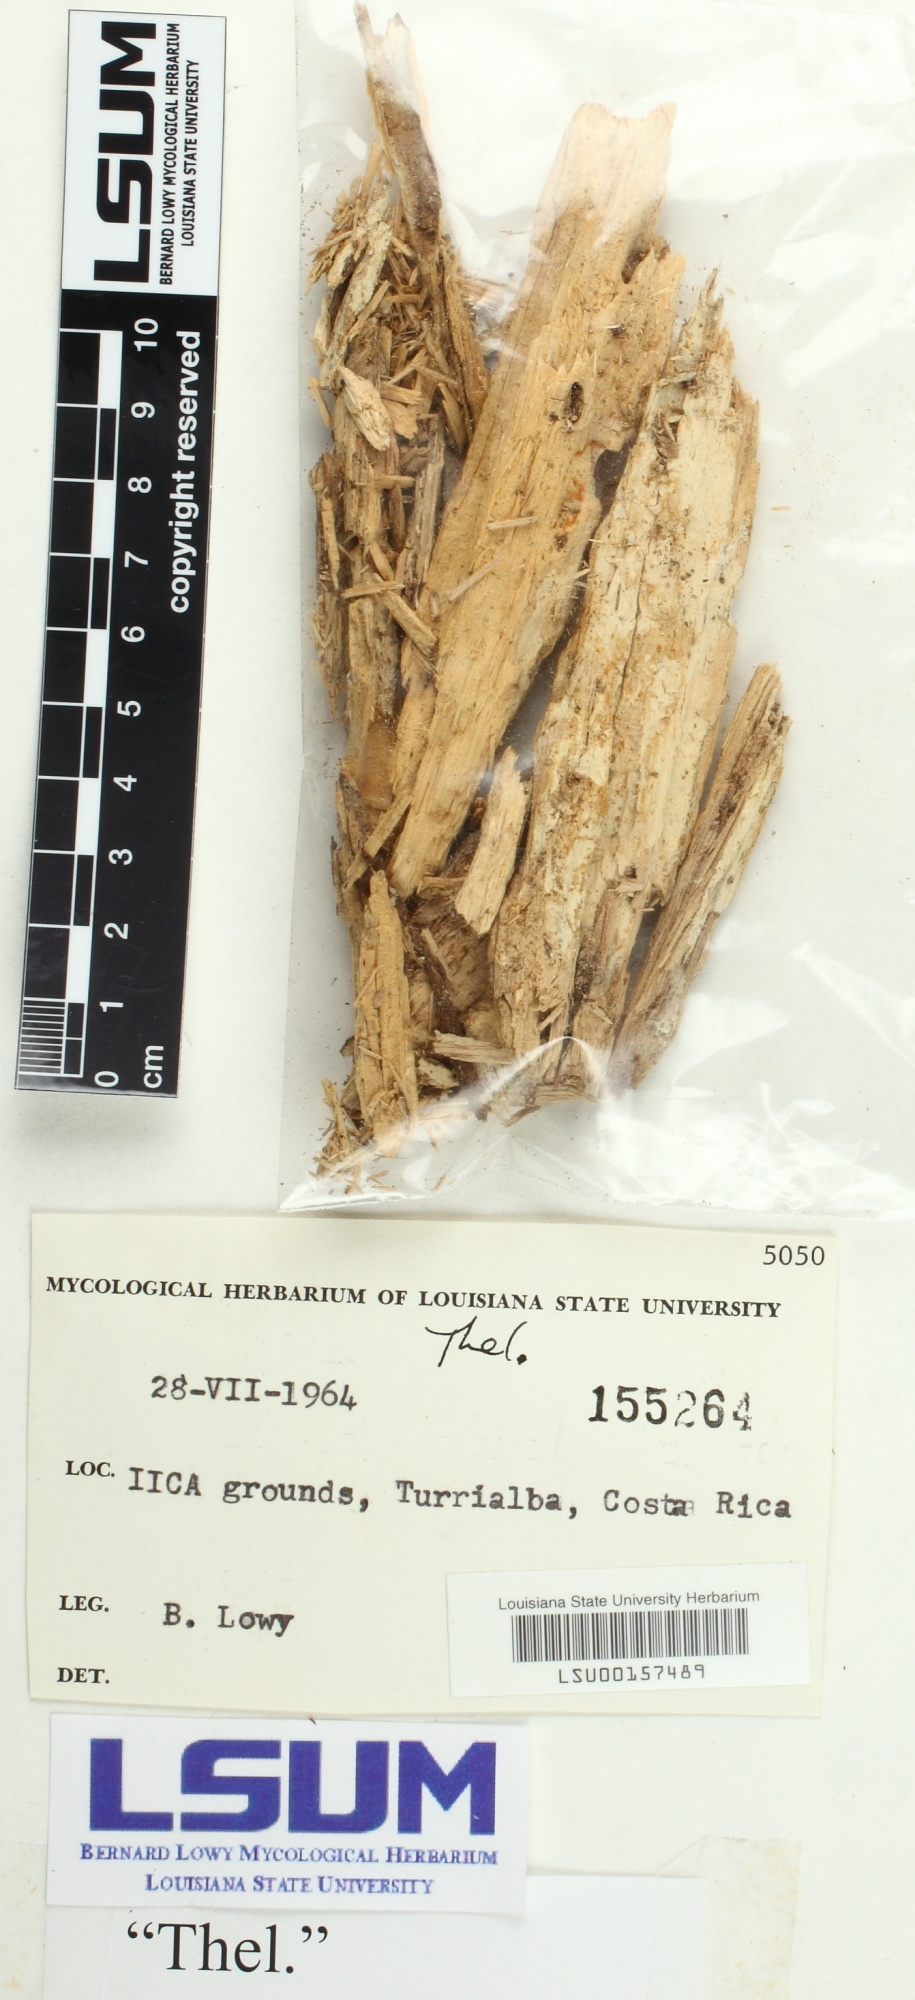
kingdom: Fungi
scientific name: Fungi
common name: Fungi
